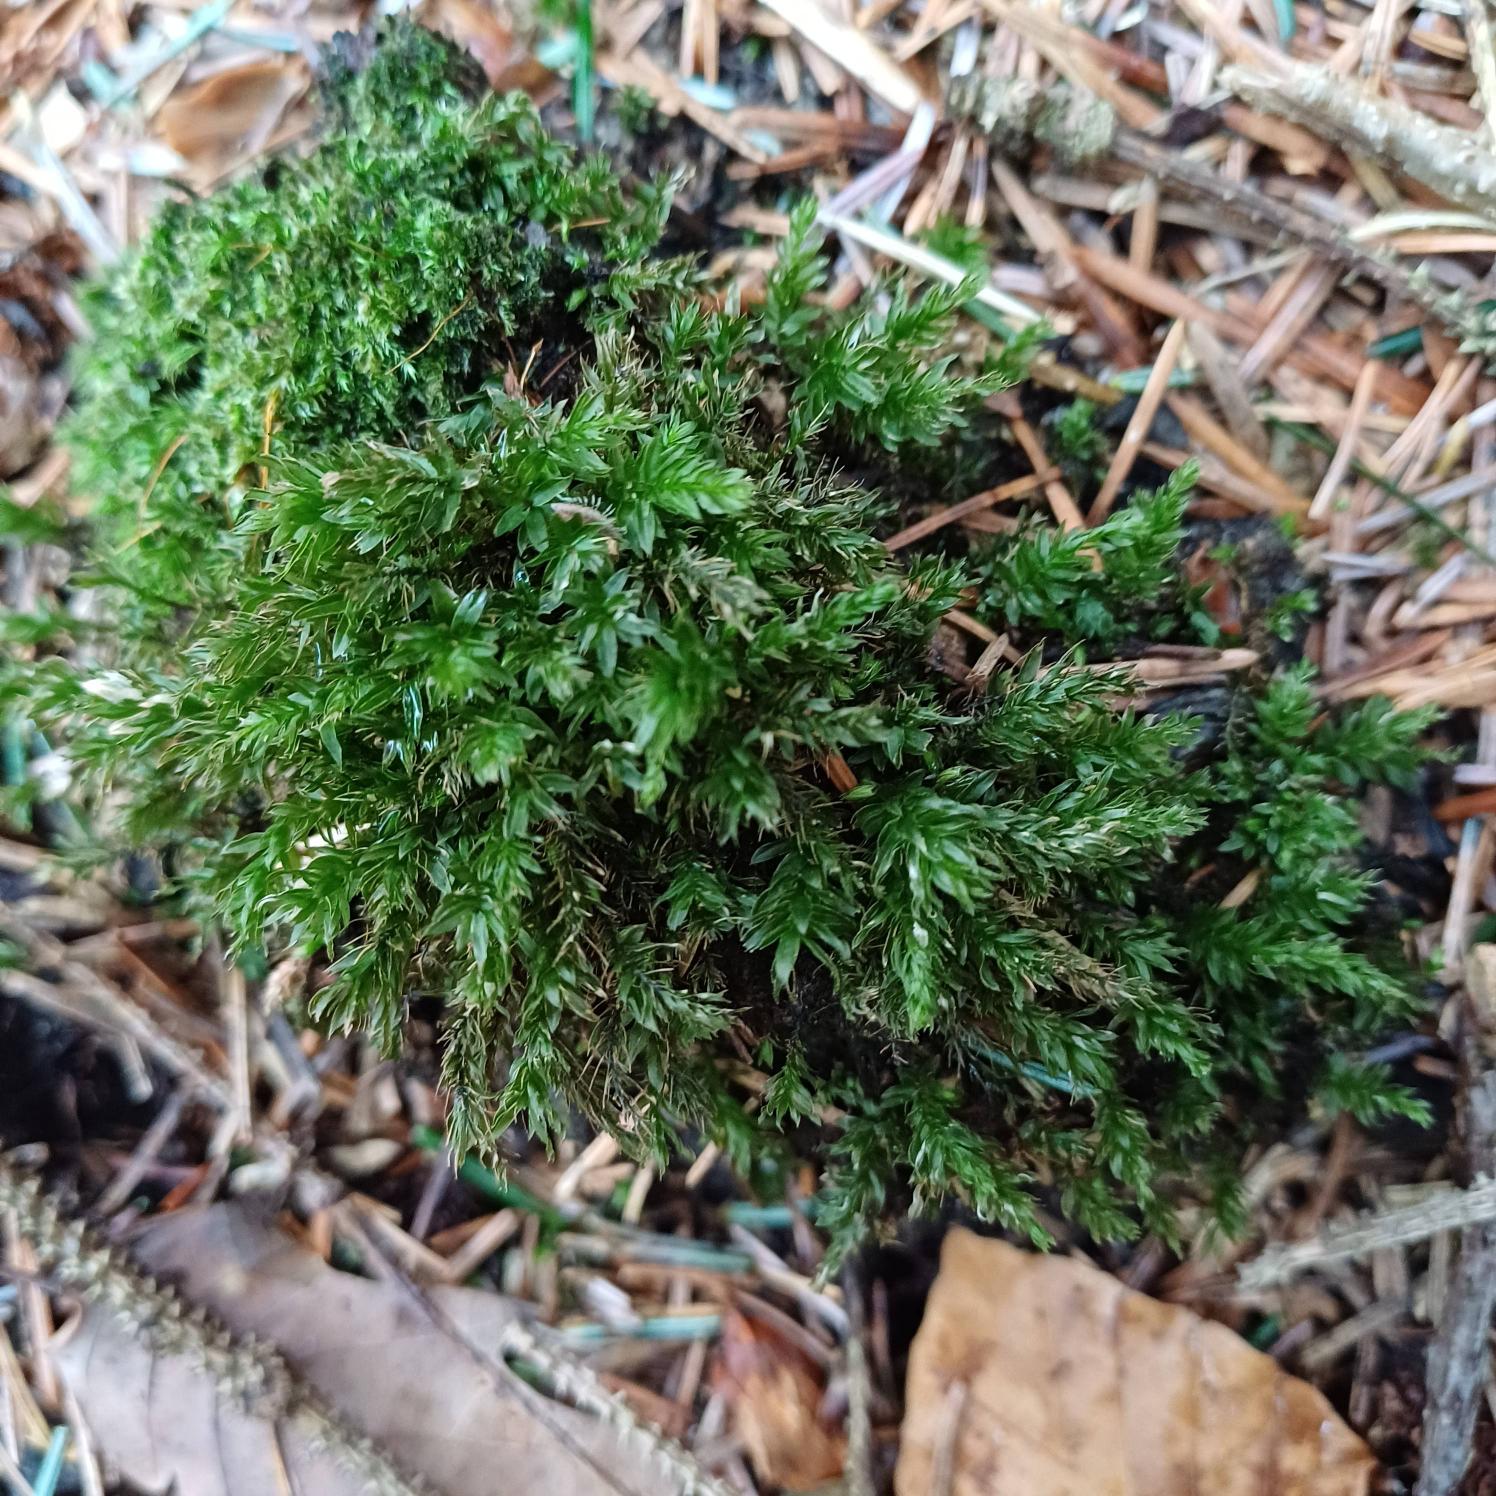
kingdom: Plantae
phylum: Bryophyta
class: Bryopsida
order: Bryales
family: Mniaceae
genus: Mnium
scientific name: Mnium hornum
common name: Brunfiltet stjernemos
